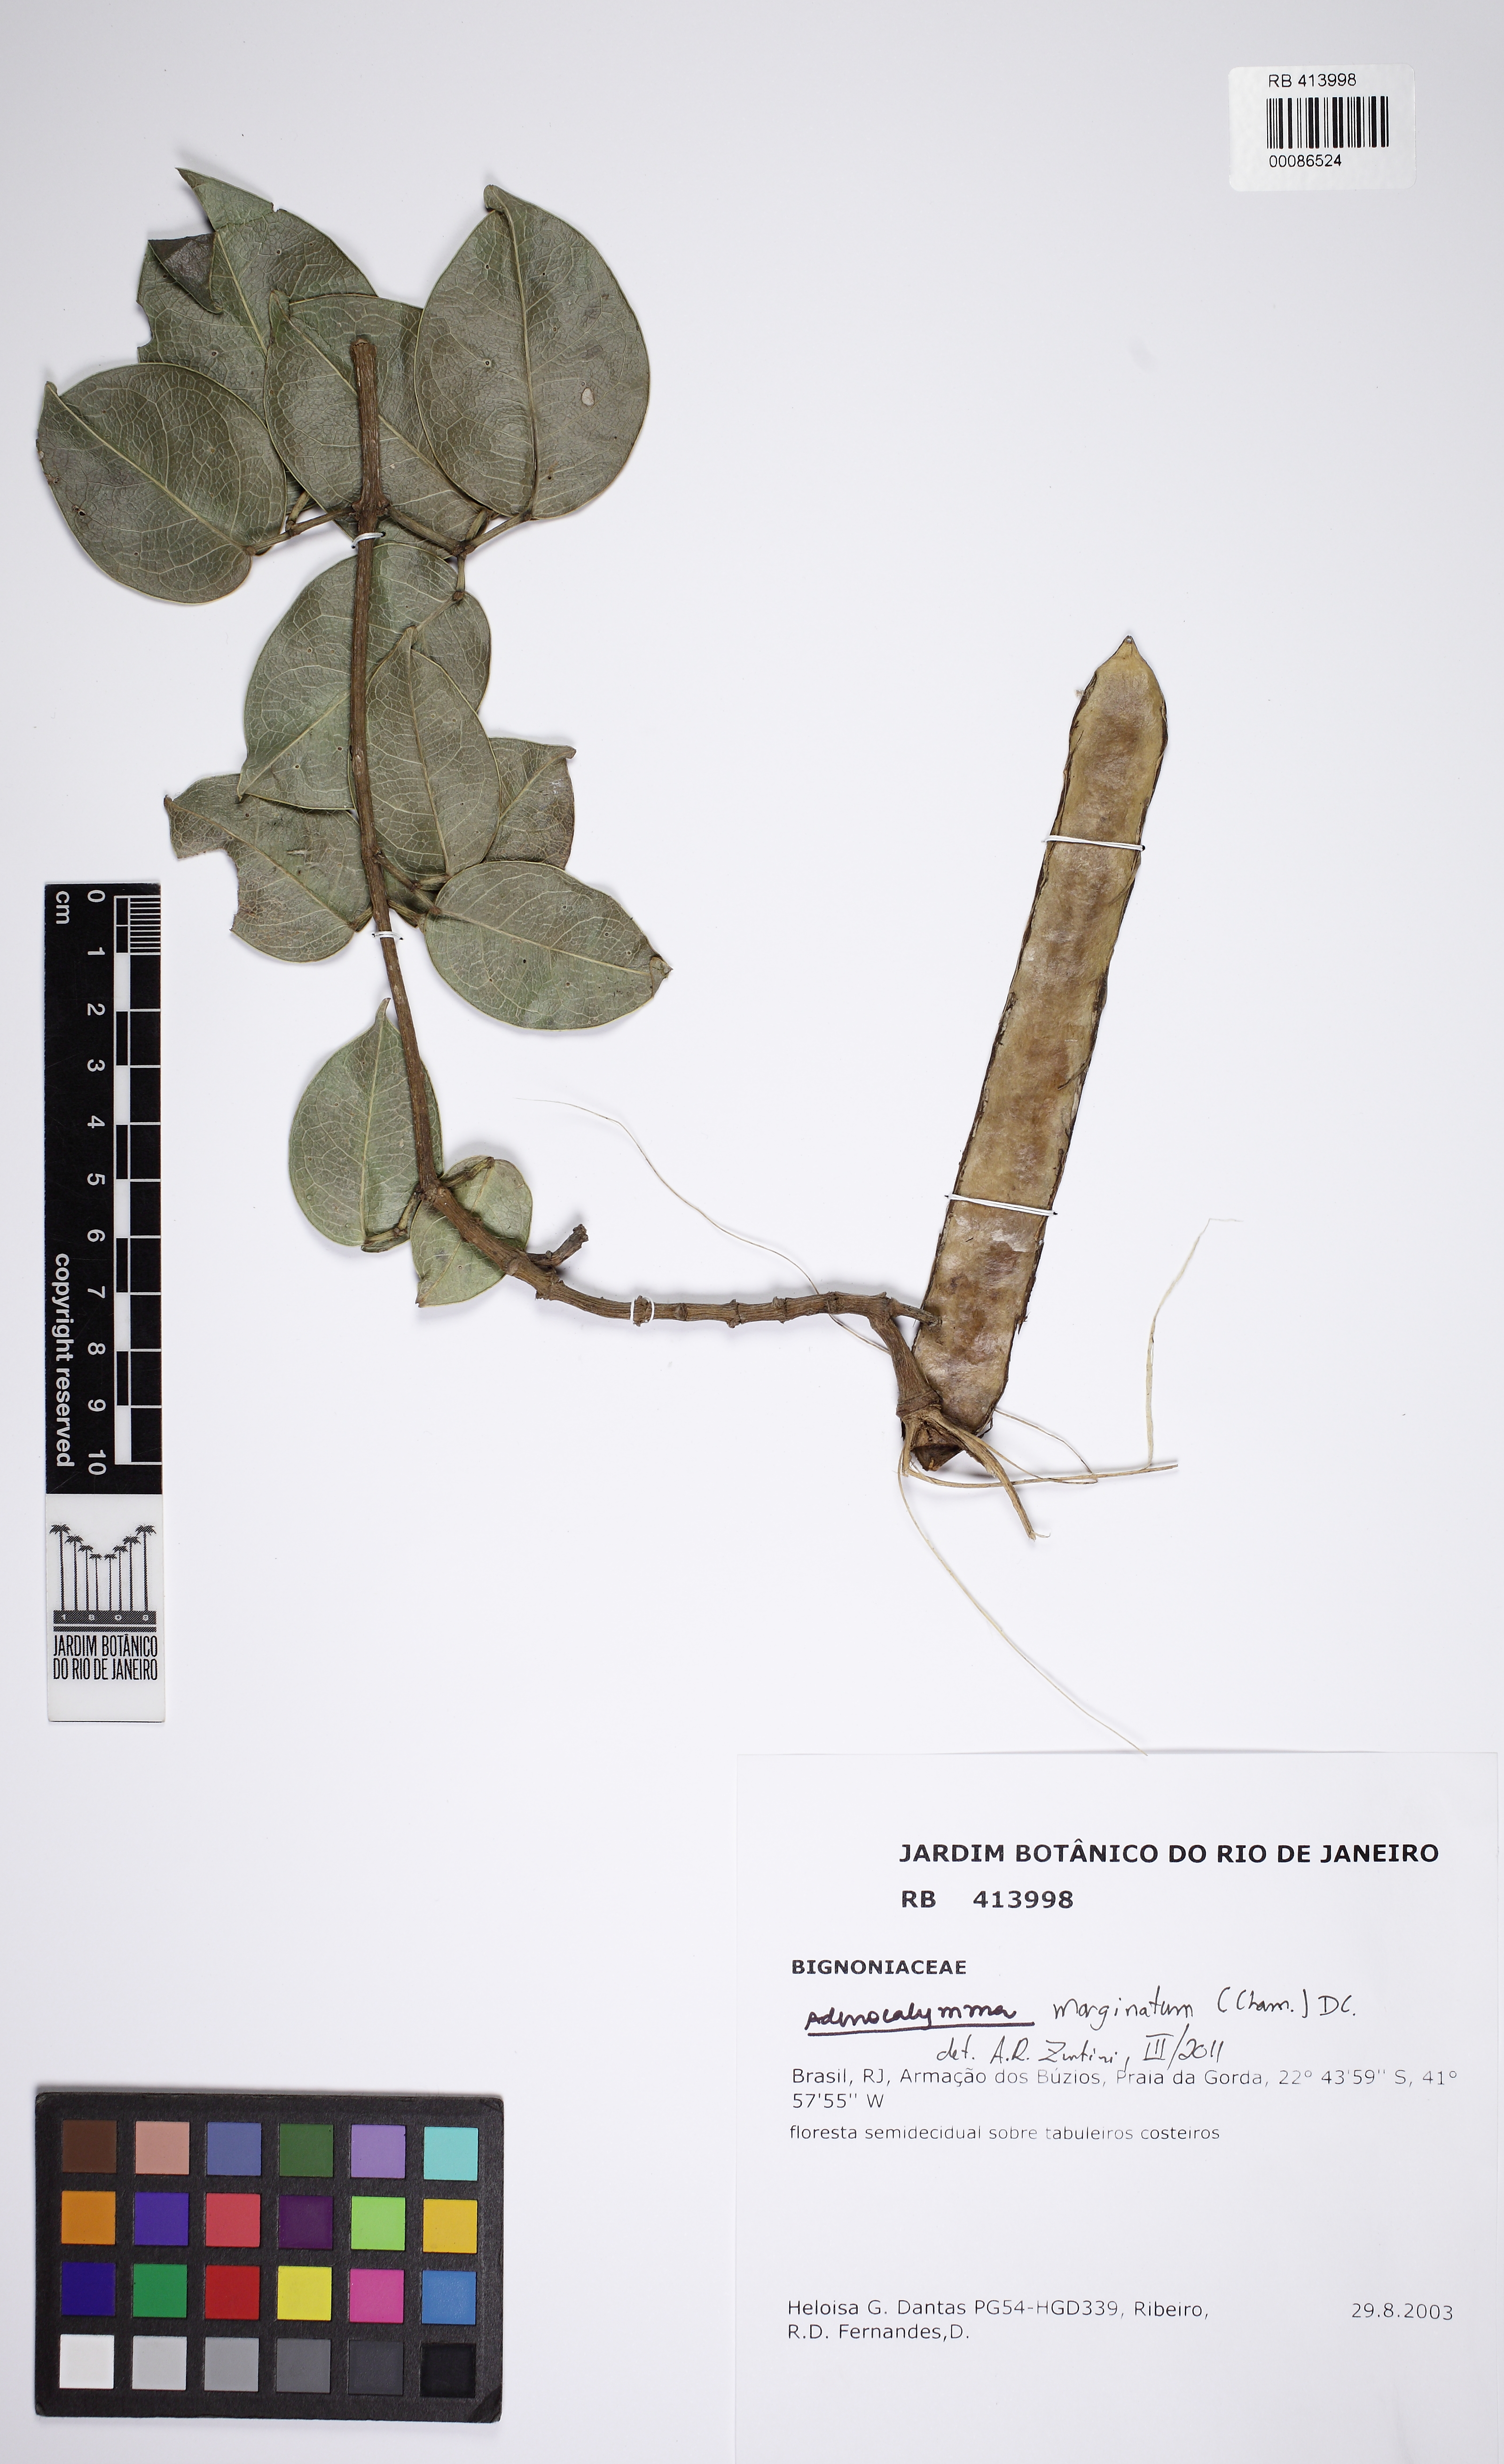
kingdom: Plantae
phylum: Tracheophyta
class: Magnoliopsida
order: Lamiales
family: Bignoniaceae
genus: Adenocalymma
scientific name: Adenocalymma marginatum
